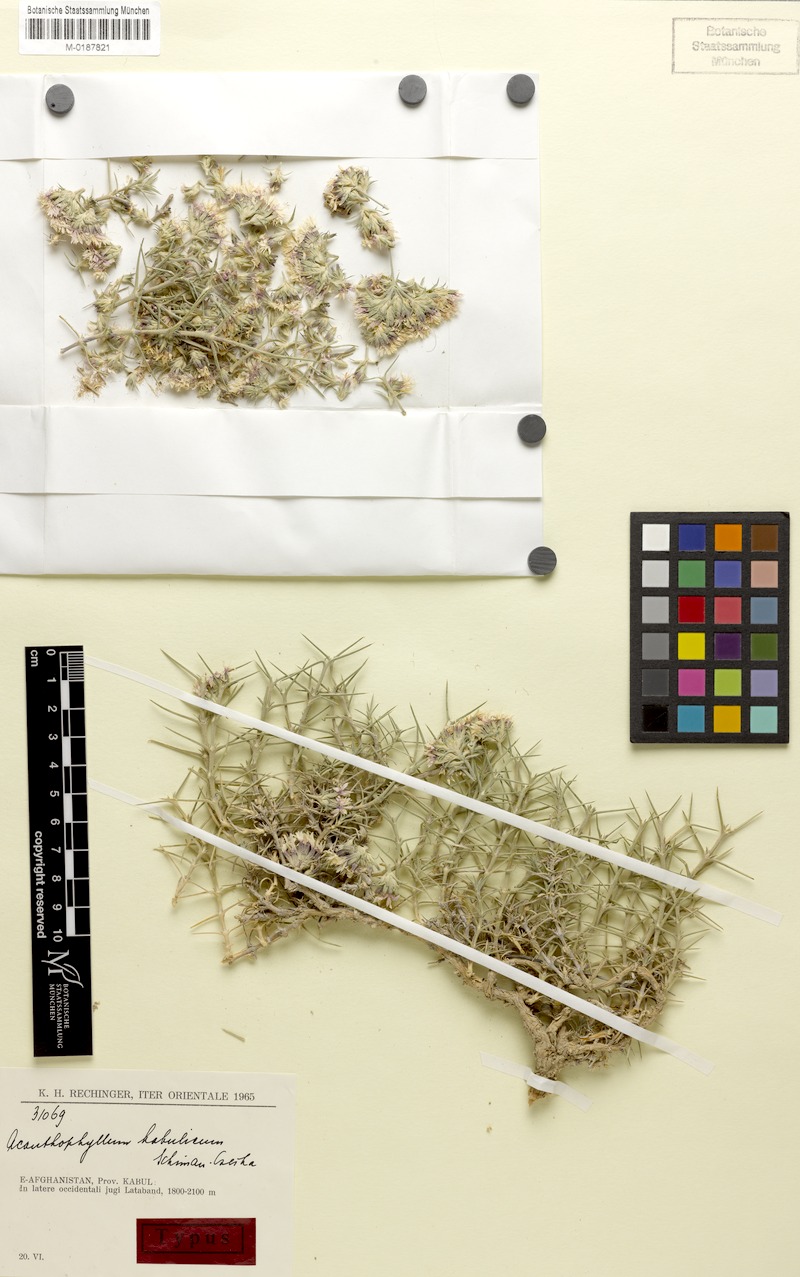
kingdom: Plantae
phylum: Tracheophyta
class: Magnoliopsida
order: Caryophyllales
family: Caryophyllaceae
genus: Acanthophyllum
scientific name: Acanthophyllum kabulicum
